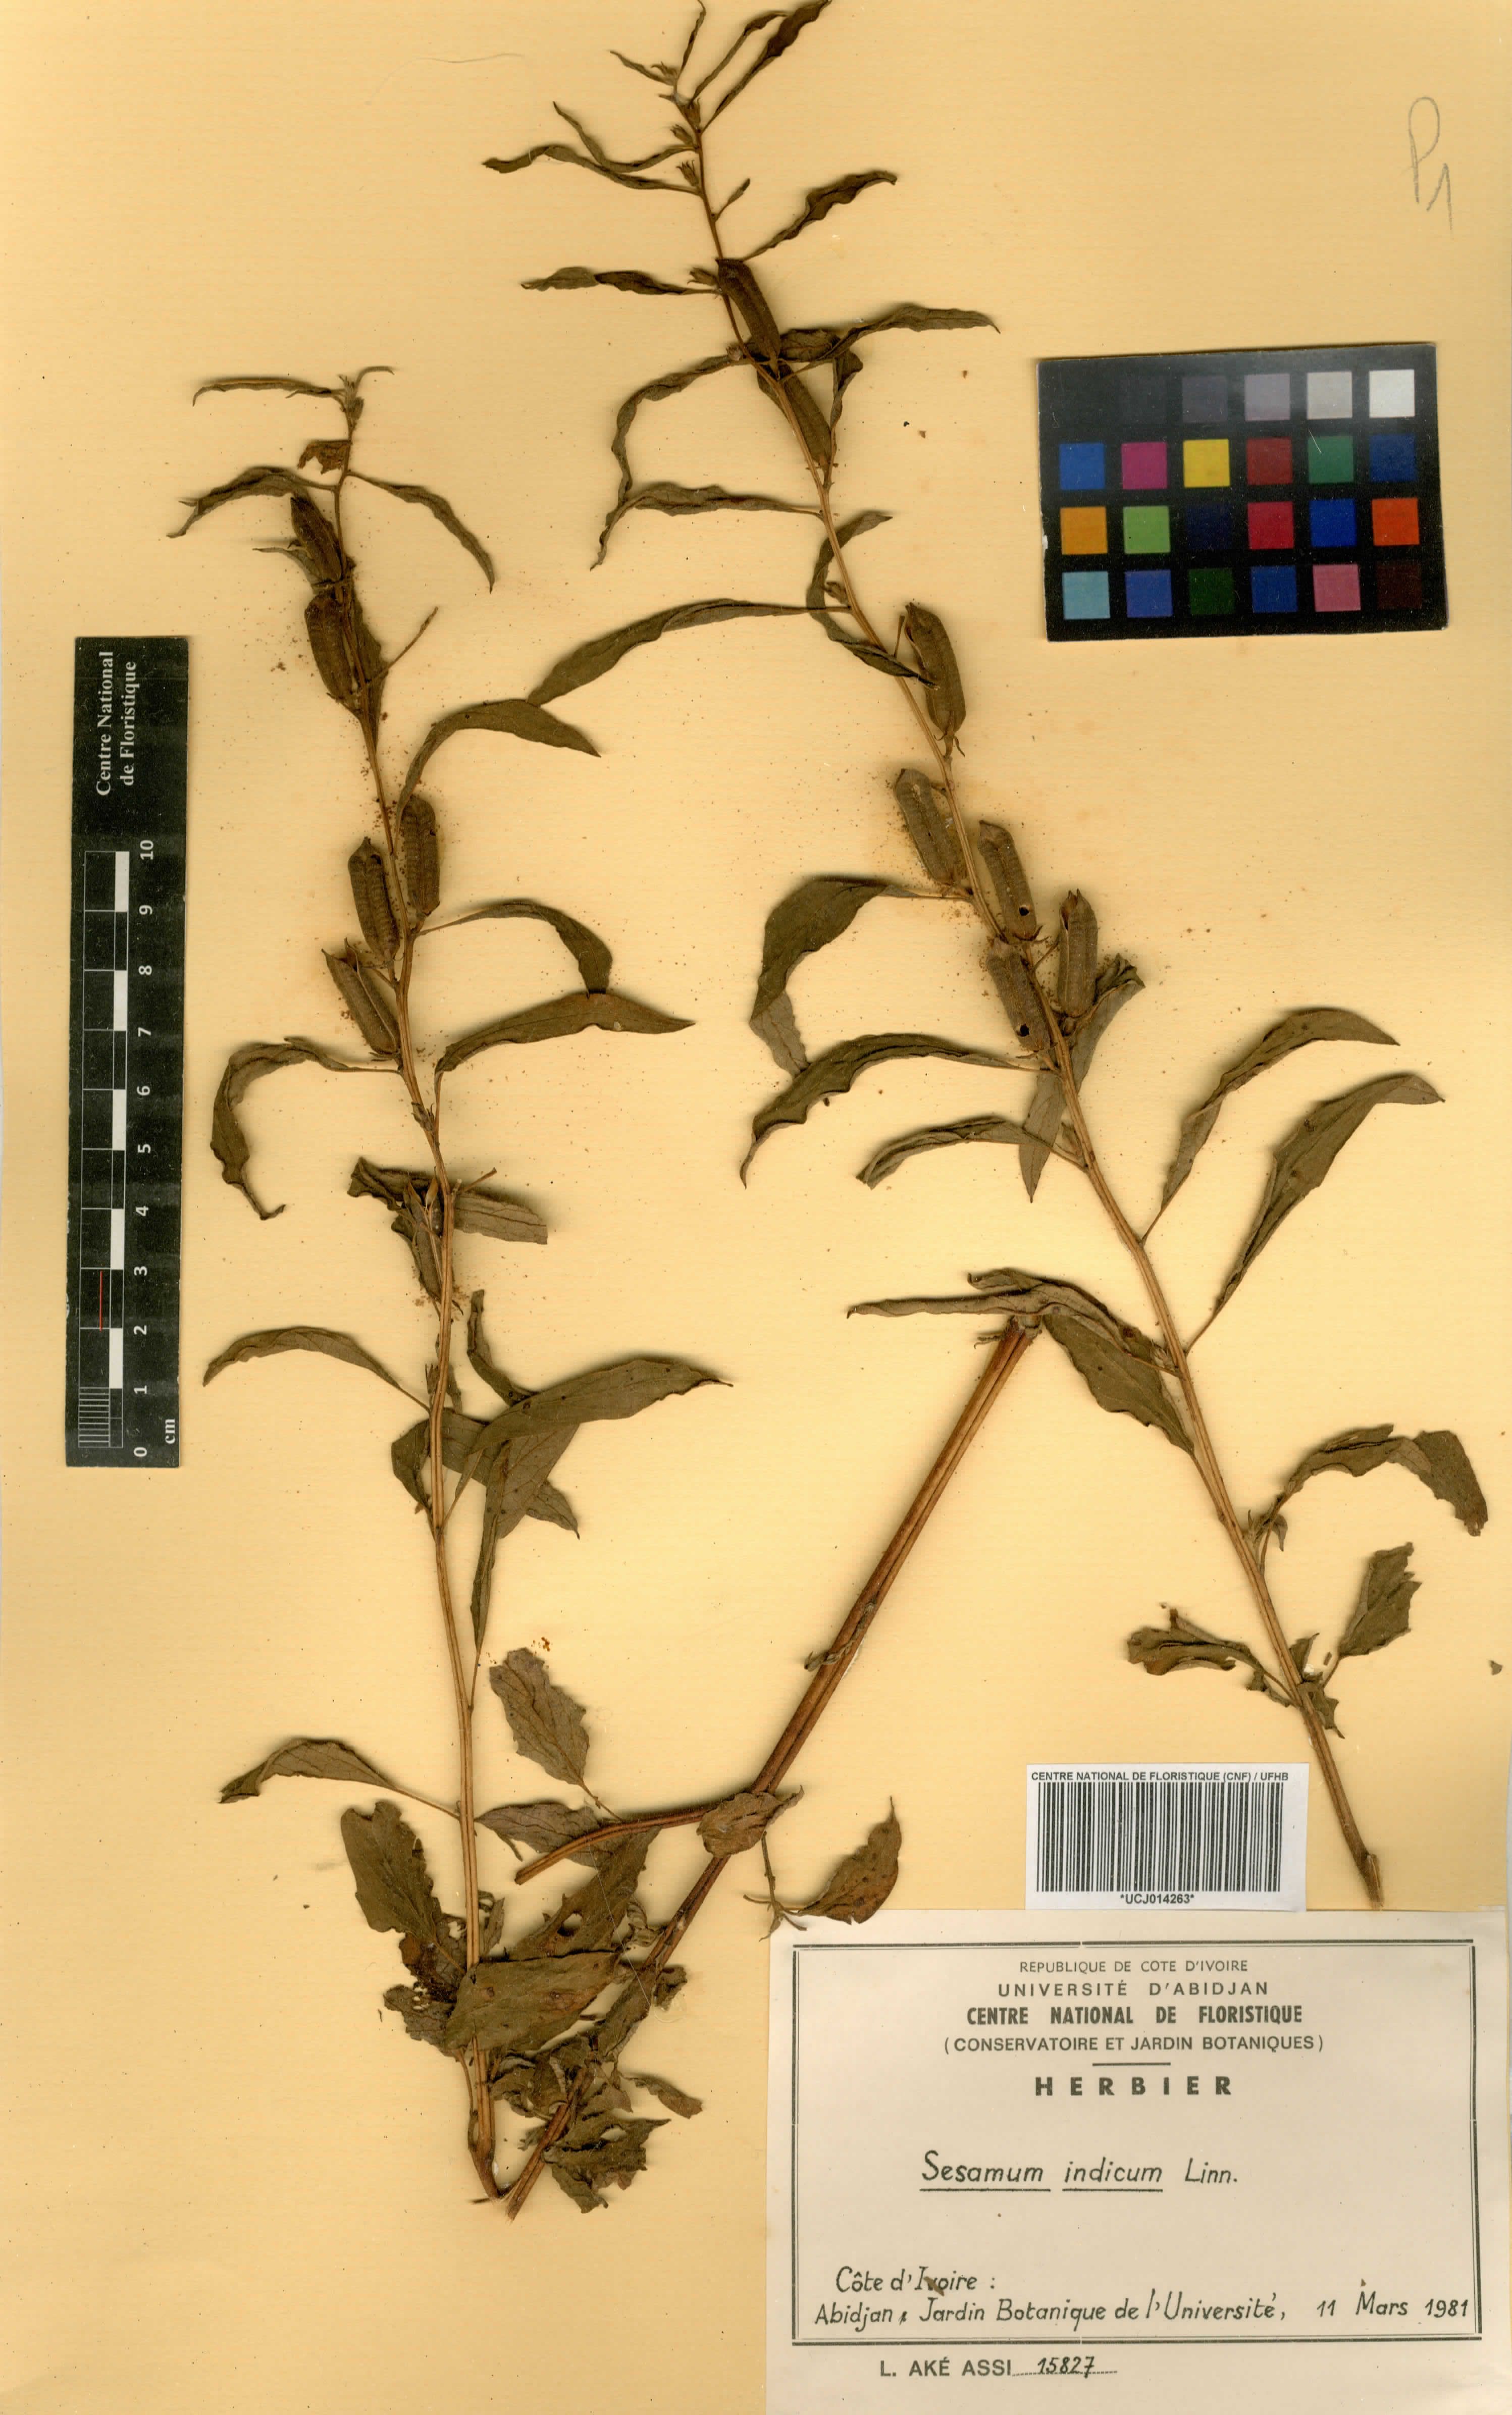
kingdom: Plantae
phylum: Tracheophyta
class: Magnoliopsida
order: Lamiales
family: Pedaliaceae
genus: Sesamum
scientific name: Sesamum indicum
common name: Sesame
